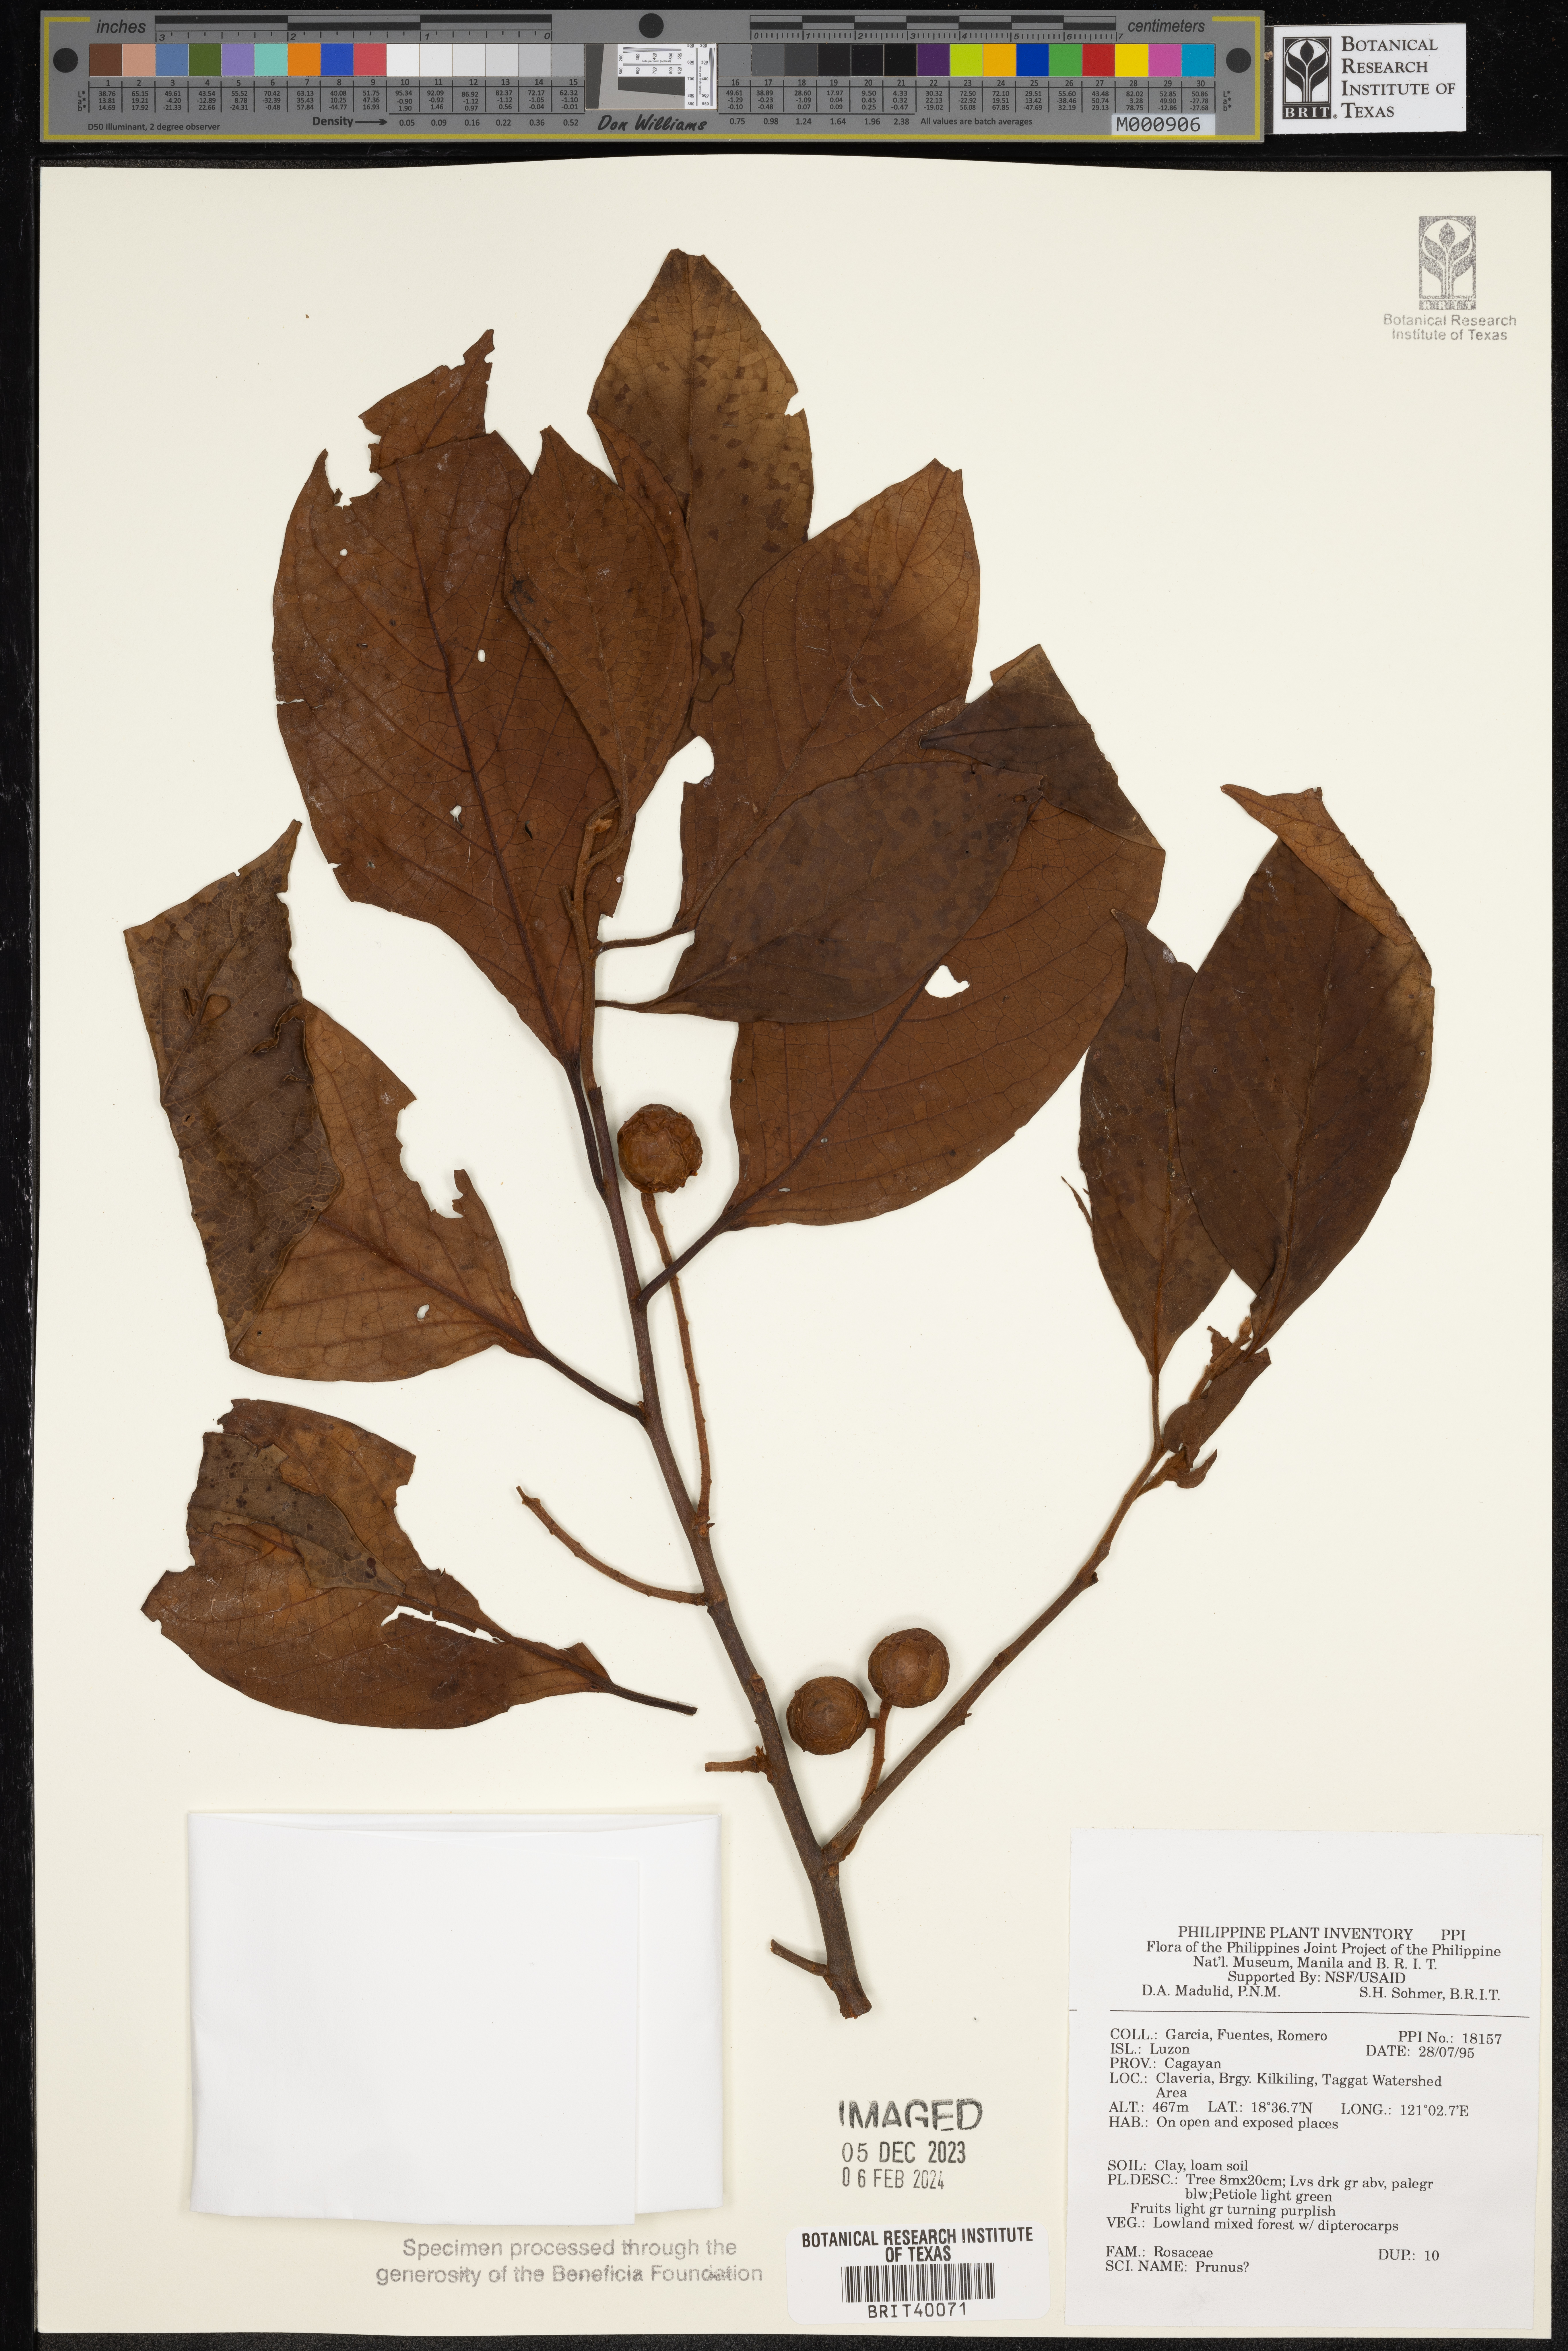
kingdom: Plantae
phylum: Tracheophyta
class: Magnoliopsida
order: Rosales
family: Rosaceae
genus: Prunus
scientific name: Prunus
